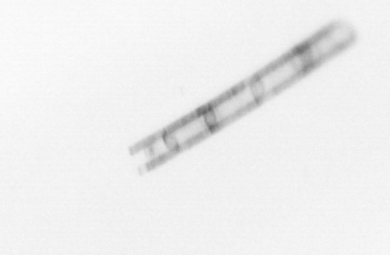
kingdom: Chromista
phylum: Ochrophyta
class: Bacillariophyceae
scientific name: Bacillariophyceae
